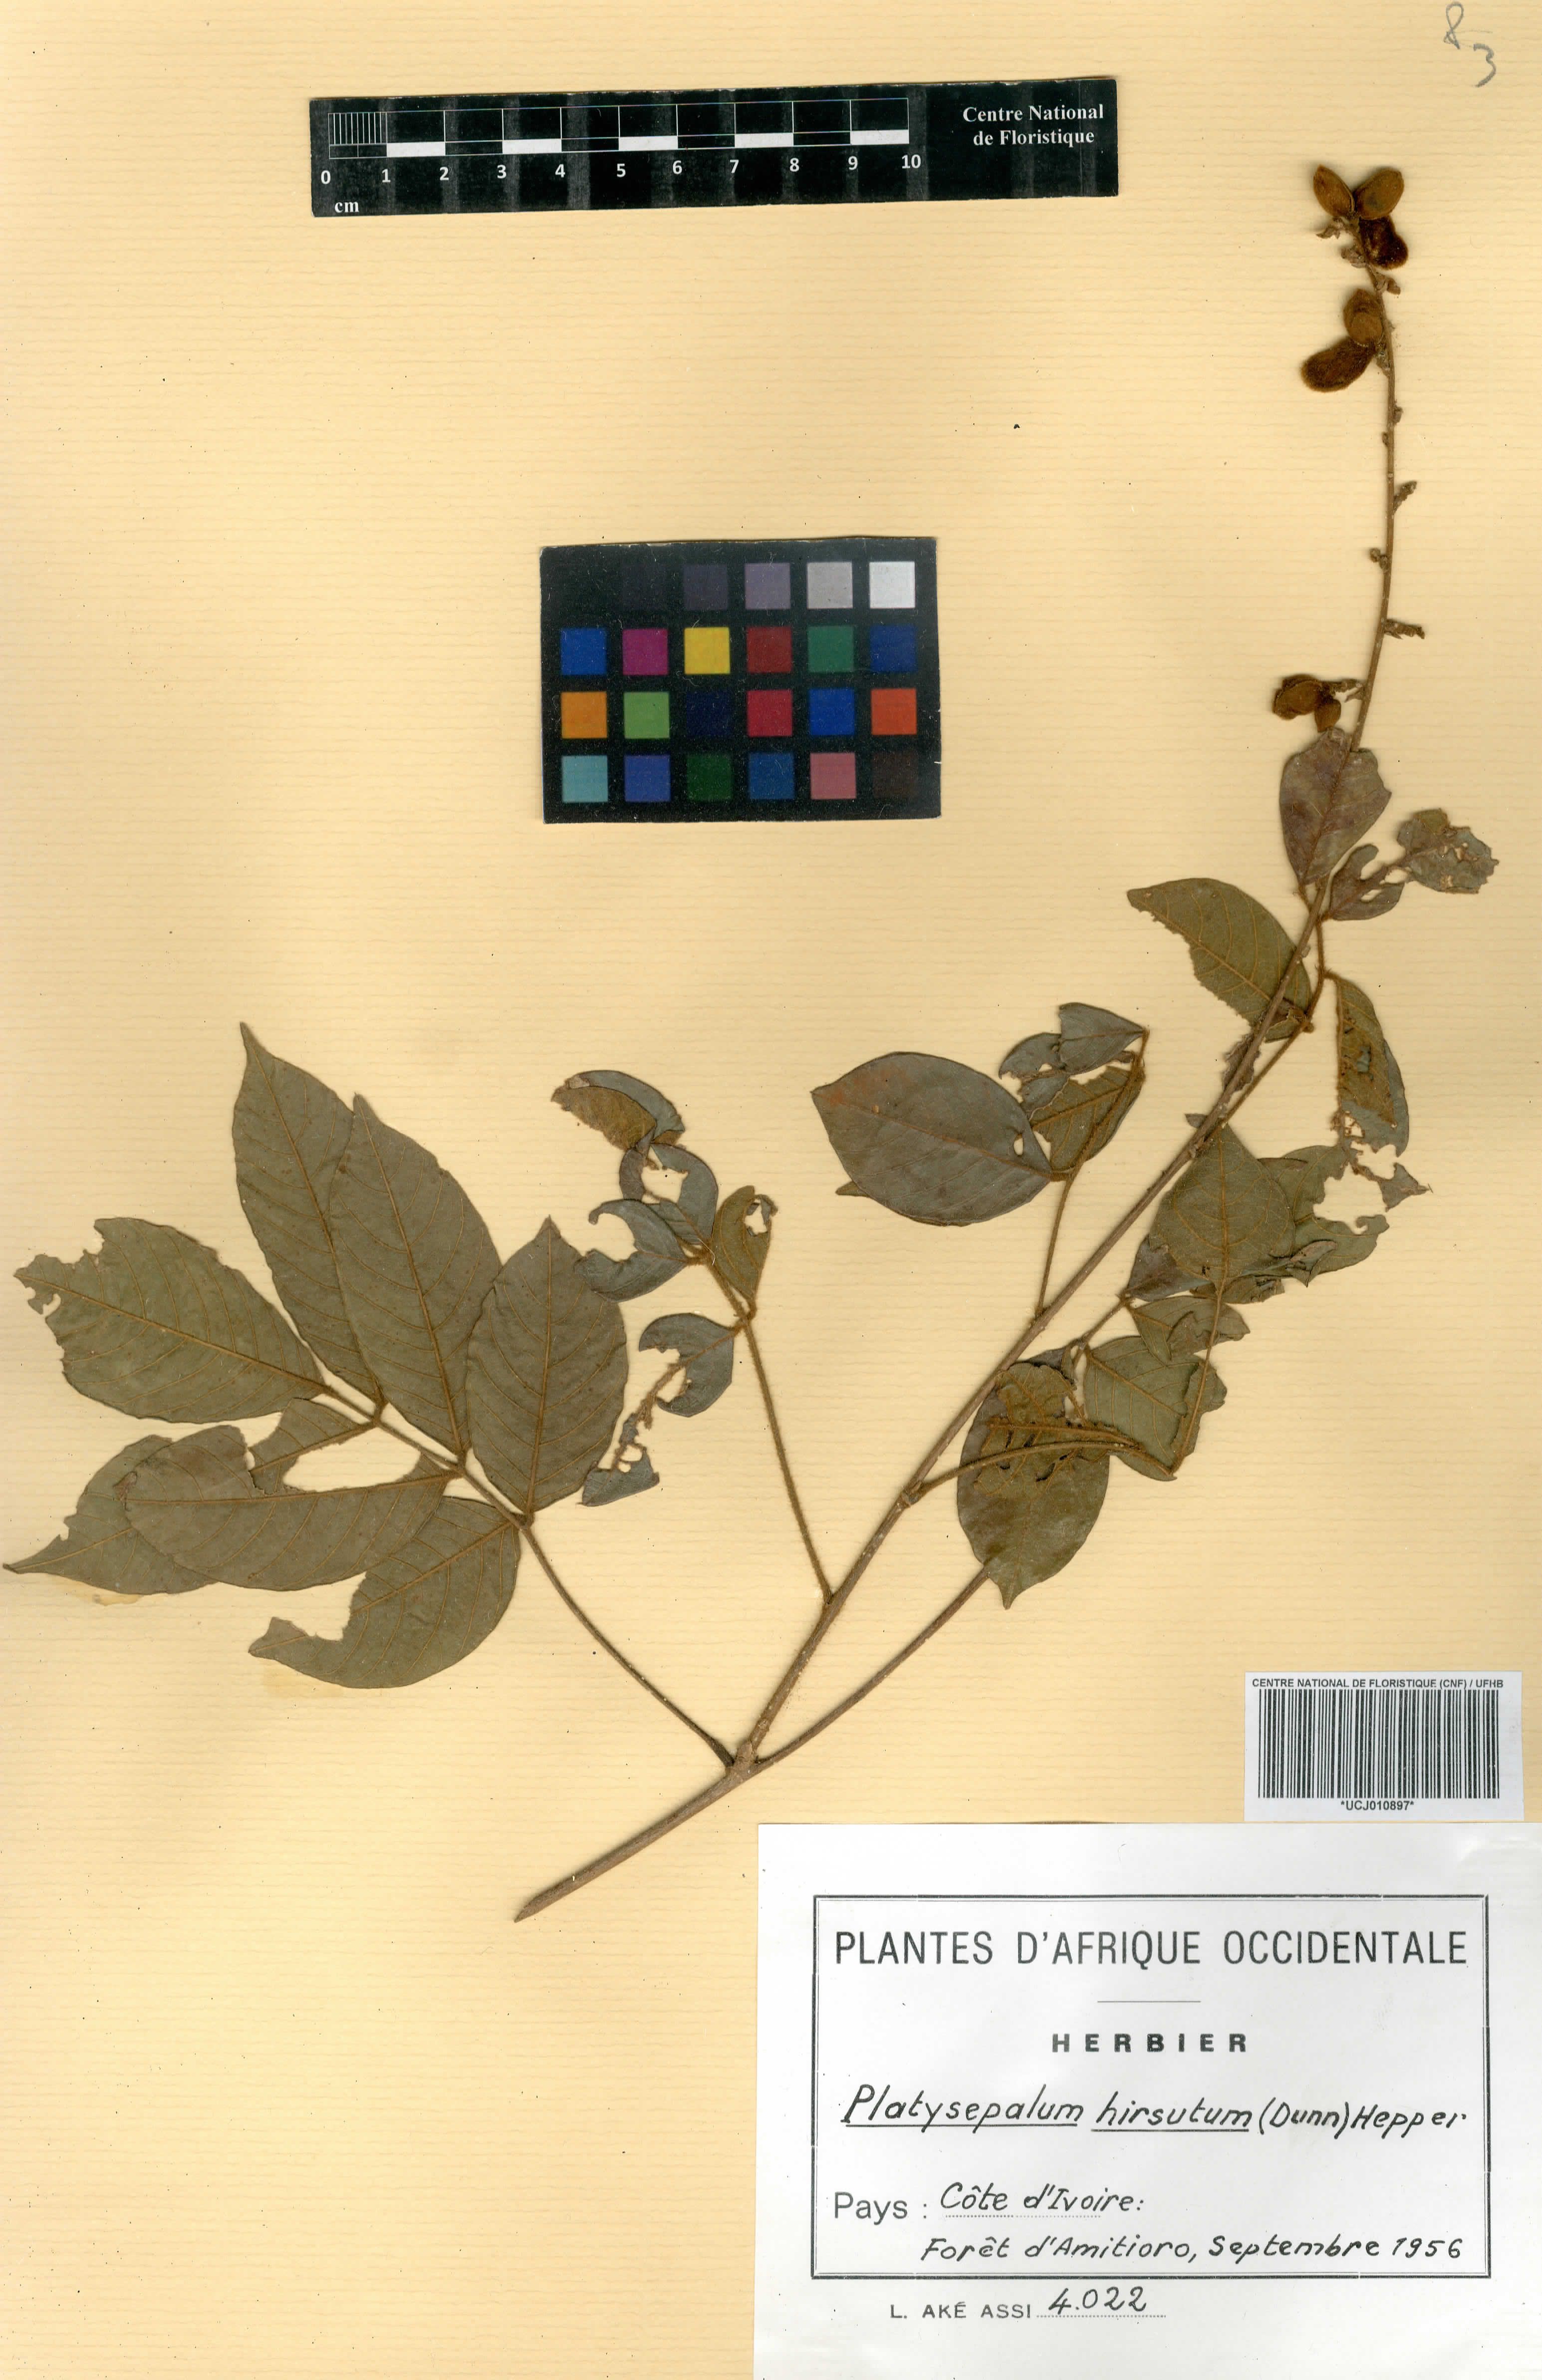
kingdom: Plantae
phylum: Tracheophyta
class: Magnoliopsida
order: Fabales
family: Fabaceae
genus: Platysepalum
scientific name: Platysepalum hirsutum
